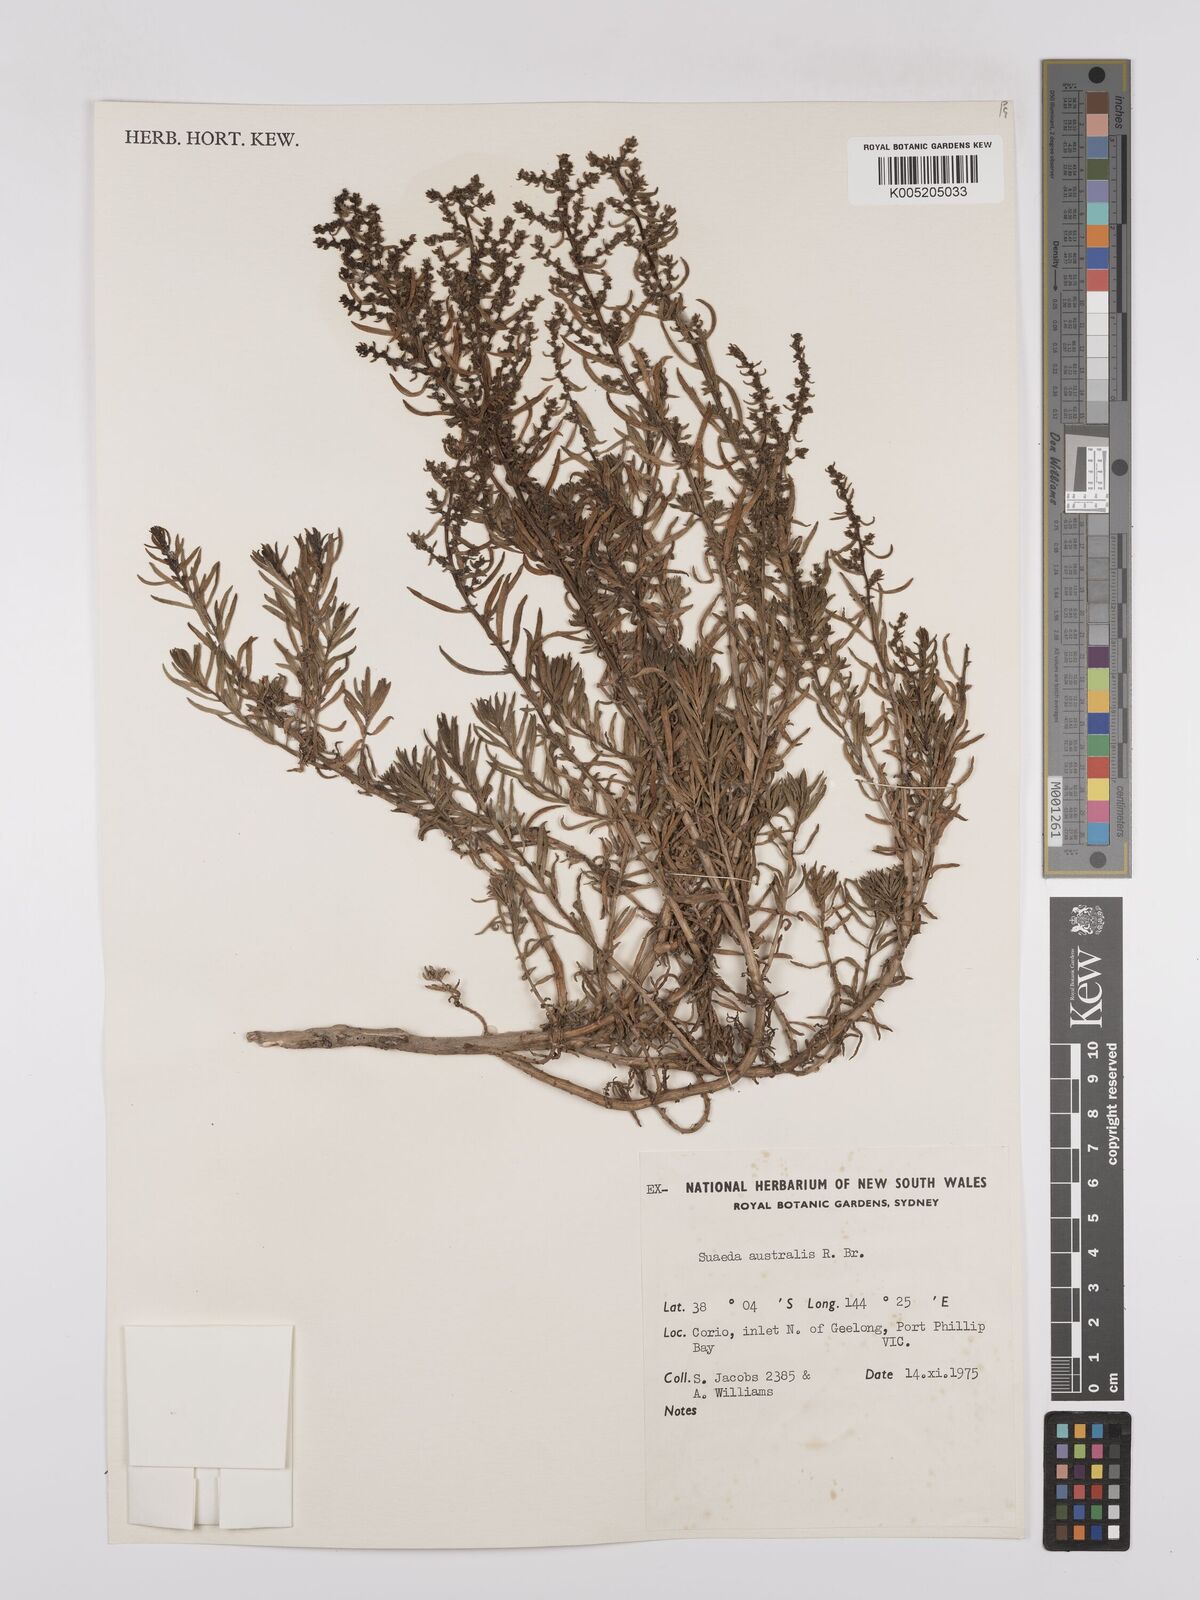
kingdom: Plantae
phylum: Tracheophyta
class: Magnoliopsida
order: Caryophyllales
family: Amaranthaceae
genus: Suaeda
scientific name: Suaeda australis
